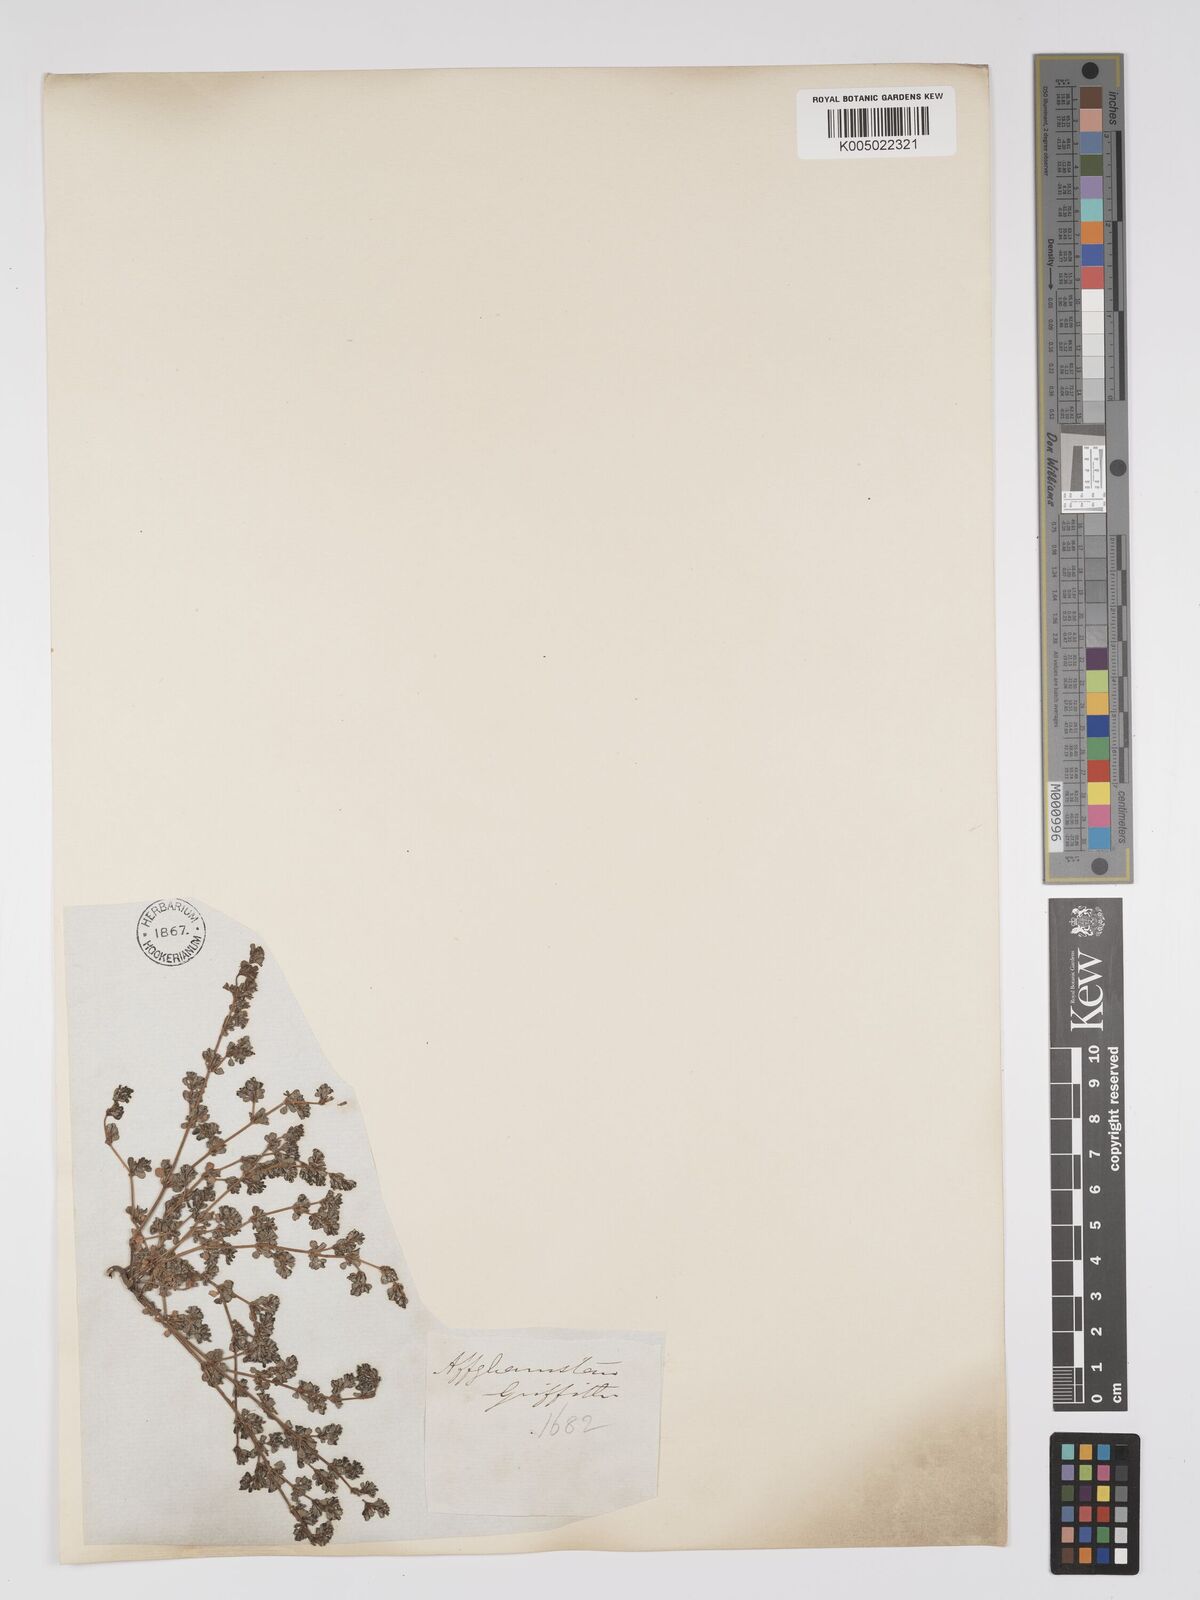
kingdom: Plantae
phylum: Tracheophyta
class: Magnoliopsida
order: Caryophyllales
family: Frankeniaceae
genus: Frankenia
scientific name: Frankenia pulverulenta
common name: European seaheath
